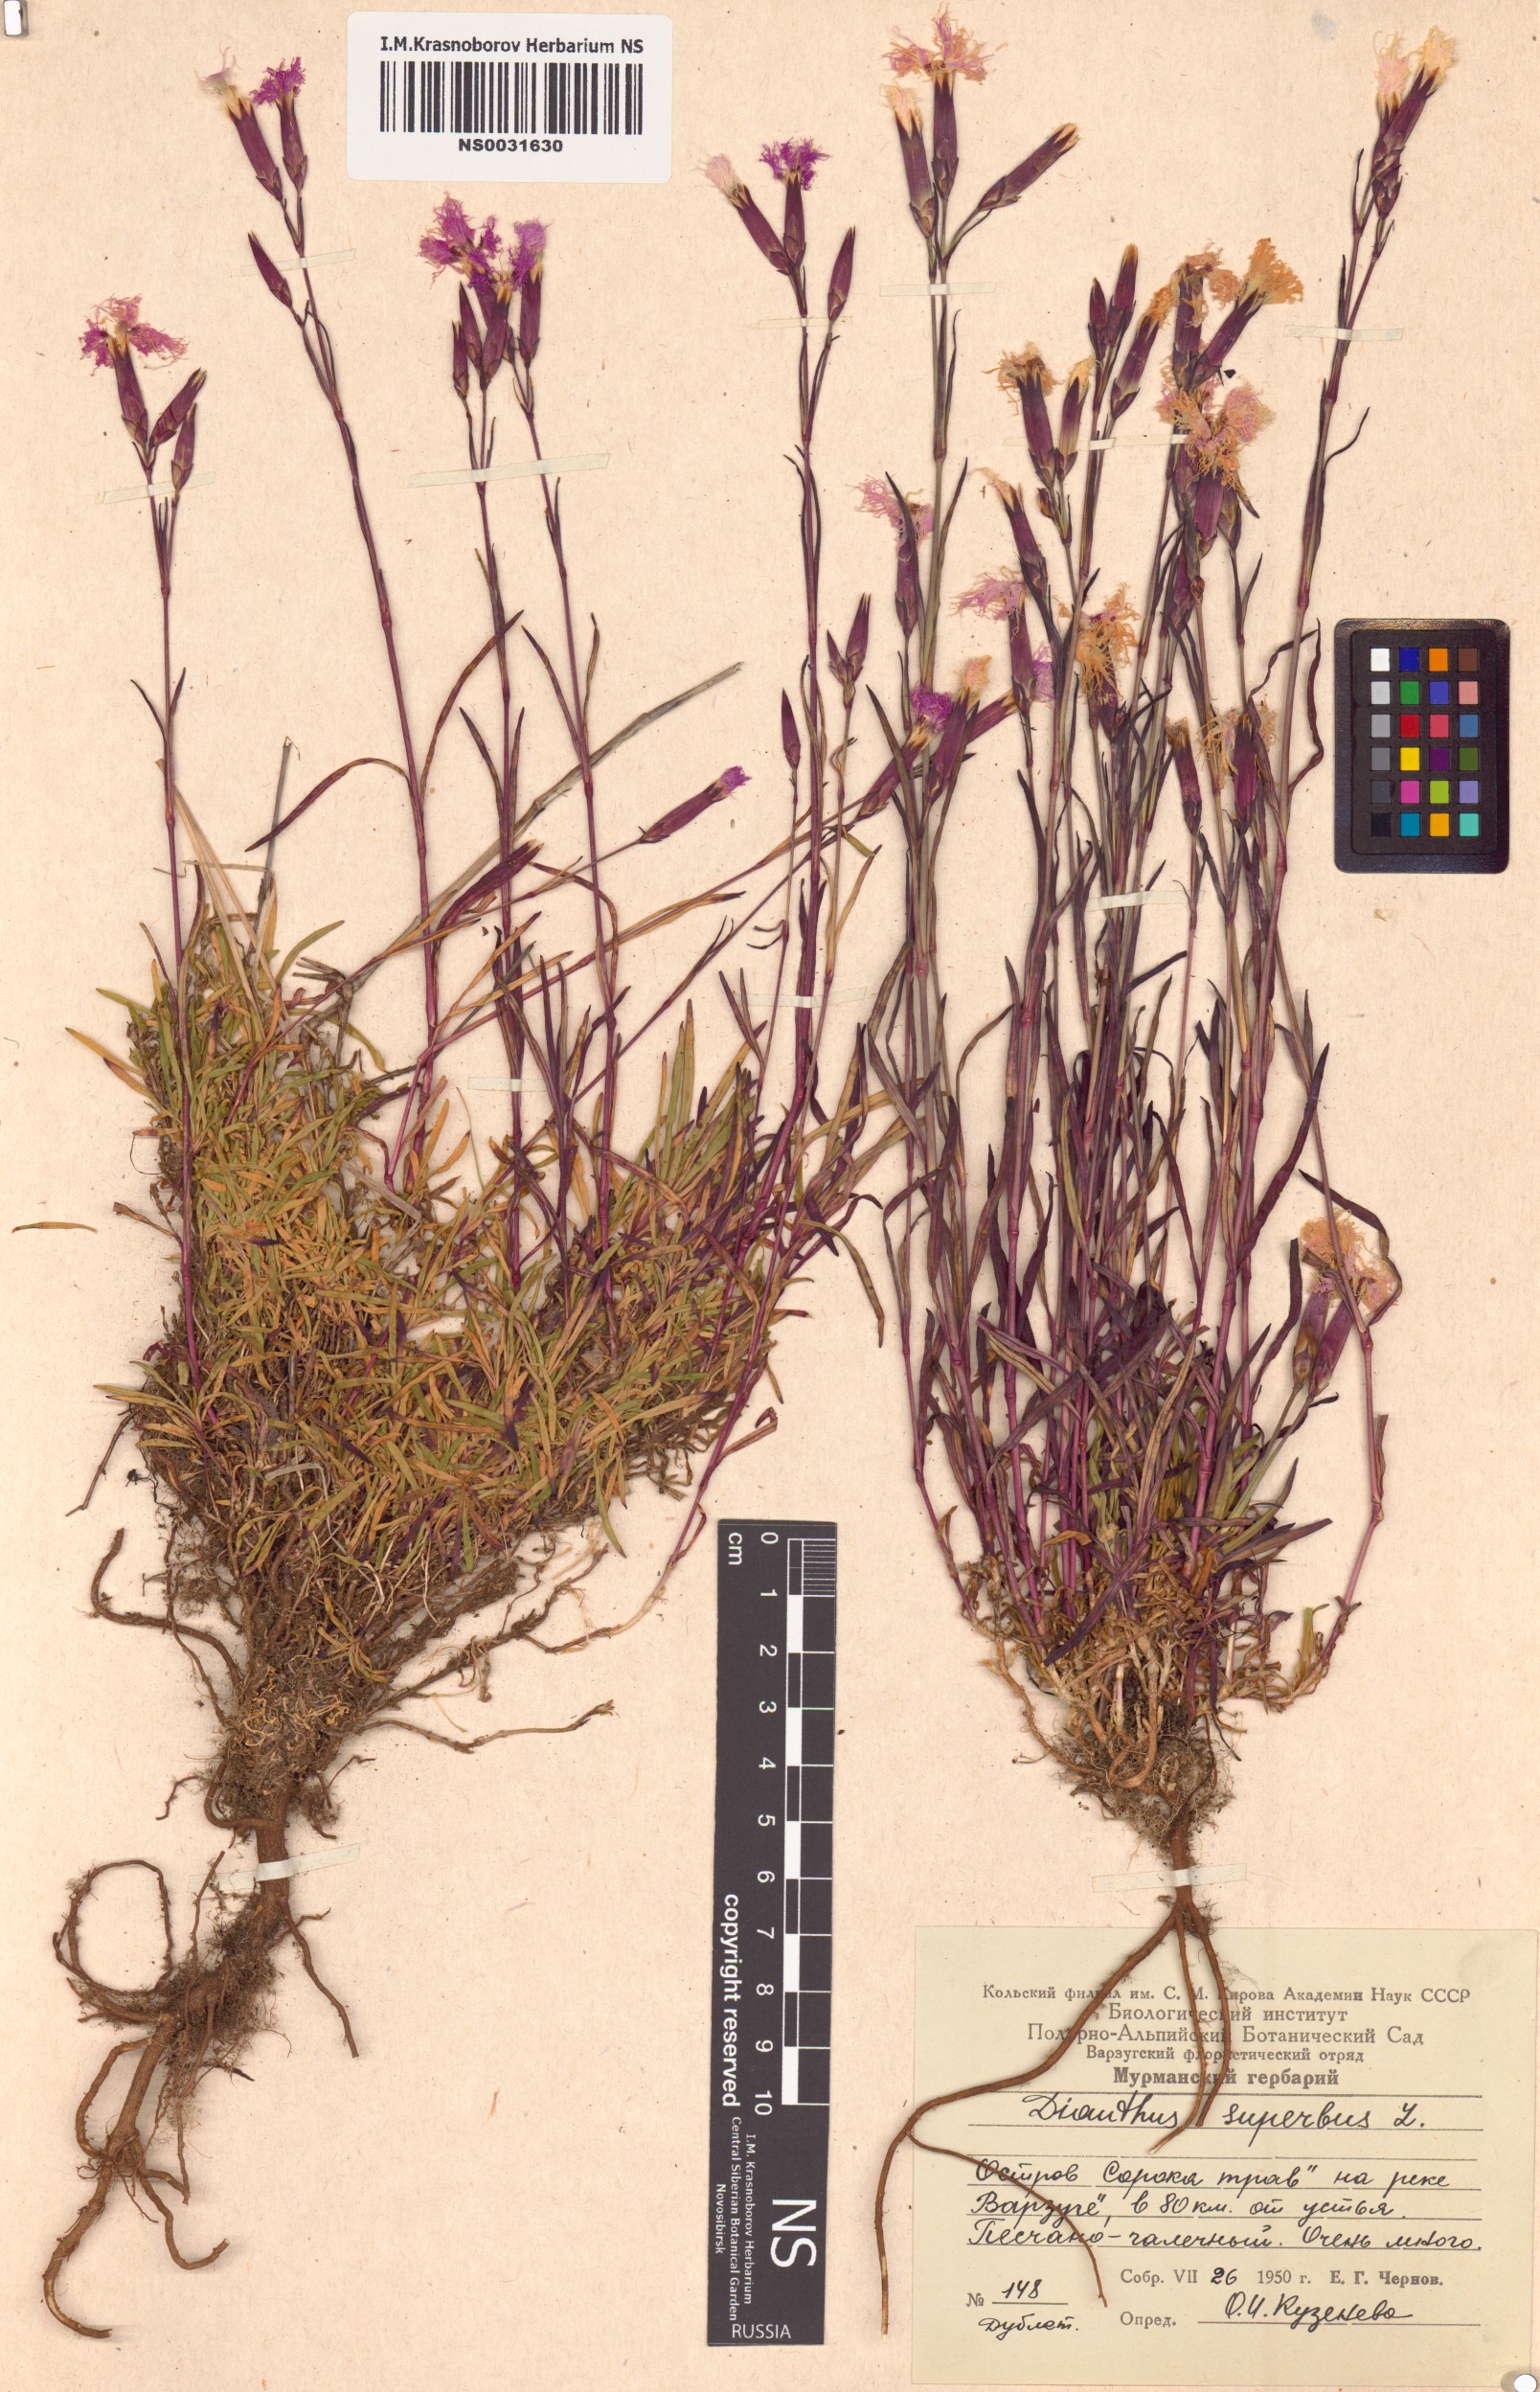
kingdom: Plantae
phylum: Tracheophyta
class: Magnoliopsida
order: Caryophyllales
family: Caryophyllaceae
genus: Dianthus
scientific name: Dianthus superbus
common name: Fringed pink
